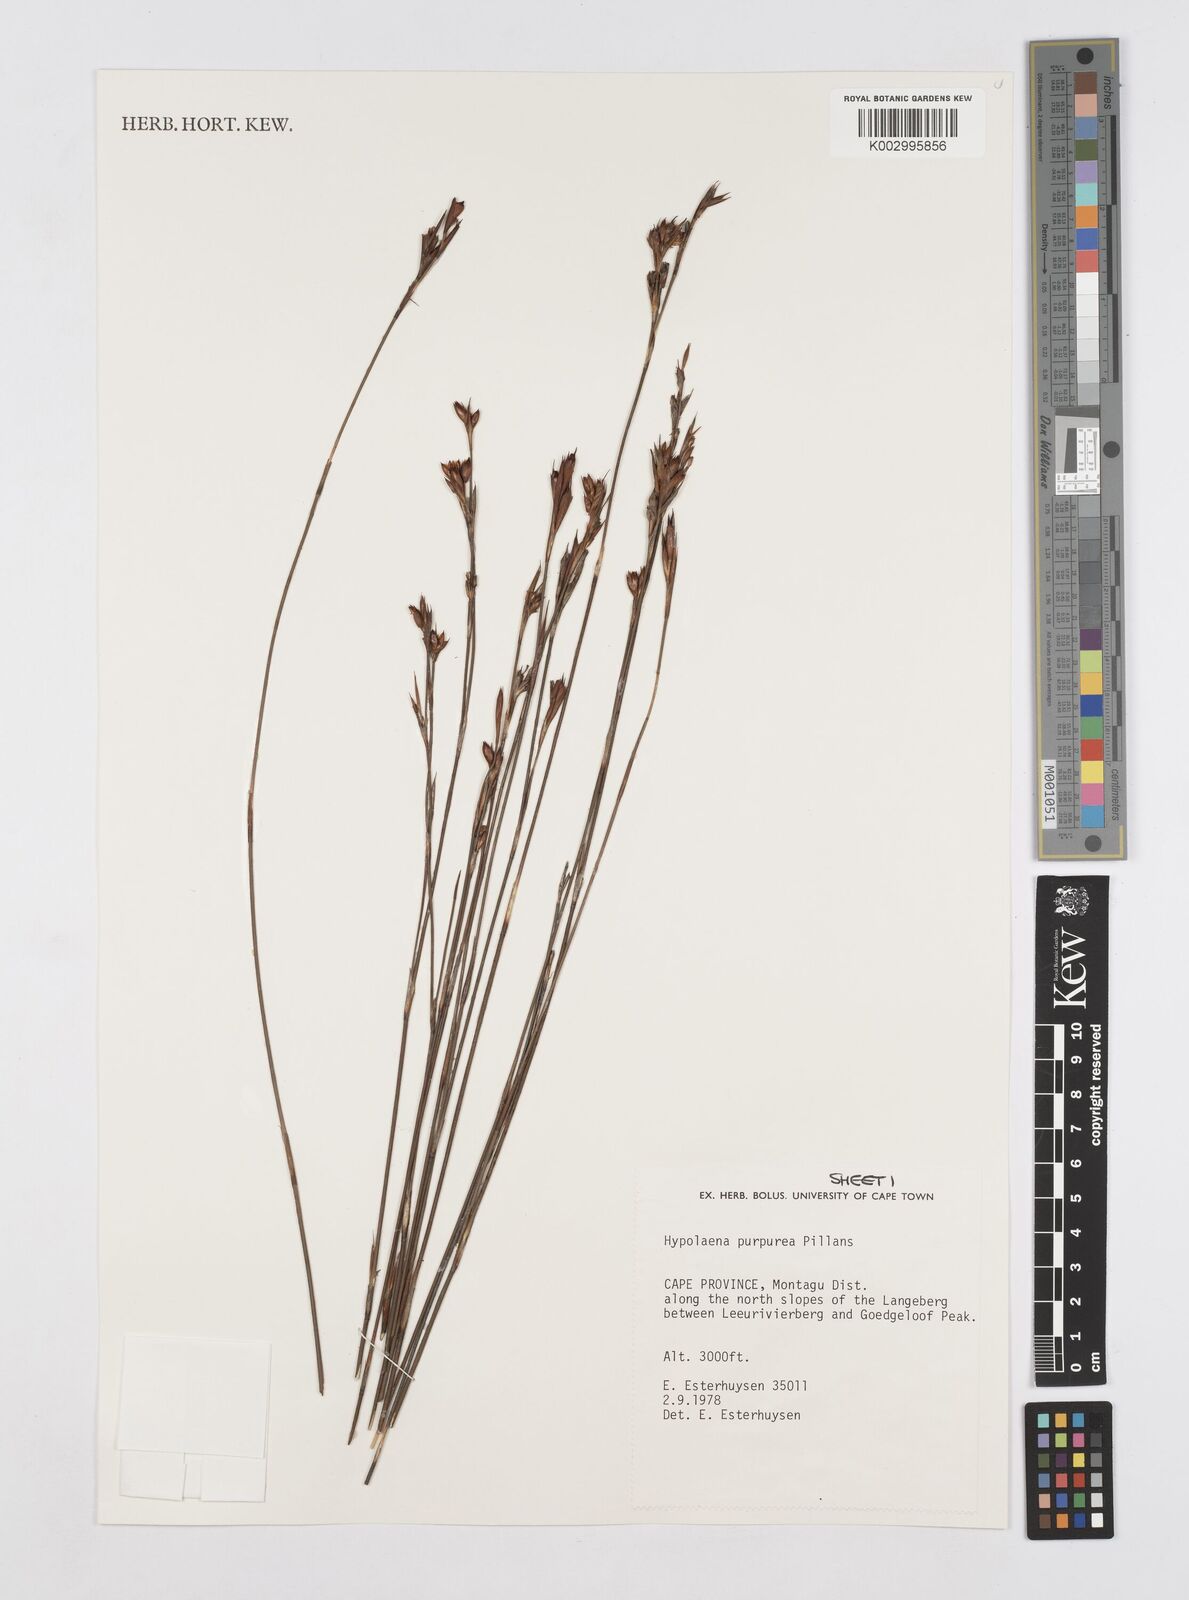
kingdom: Plantae
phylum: Tracheophyta
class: Liliopsida
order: Poales
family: Restionaceae
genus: Mastersiella
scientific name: Mastersiella purpurea
